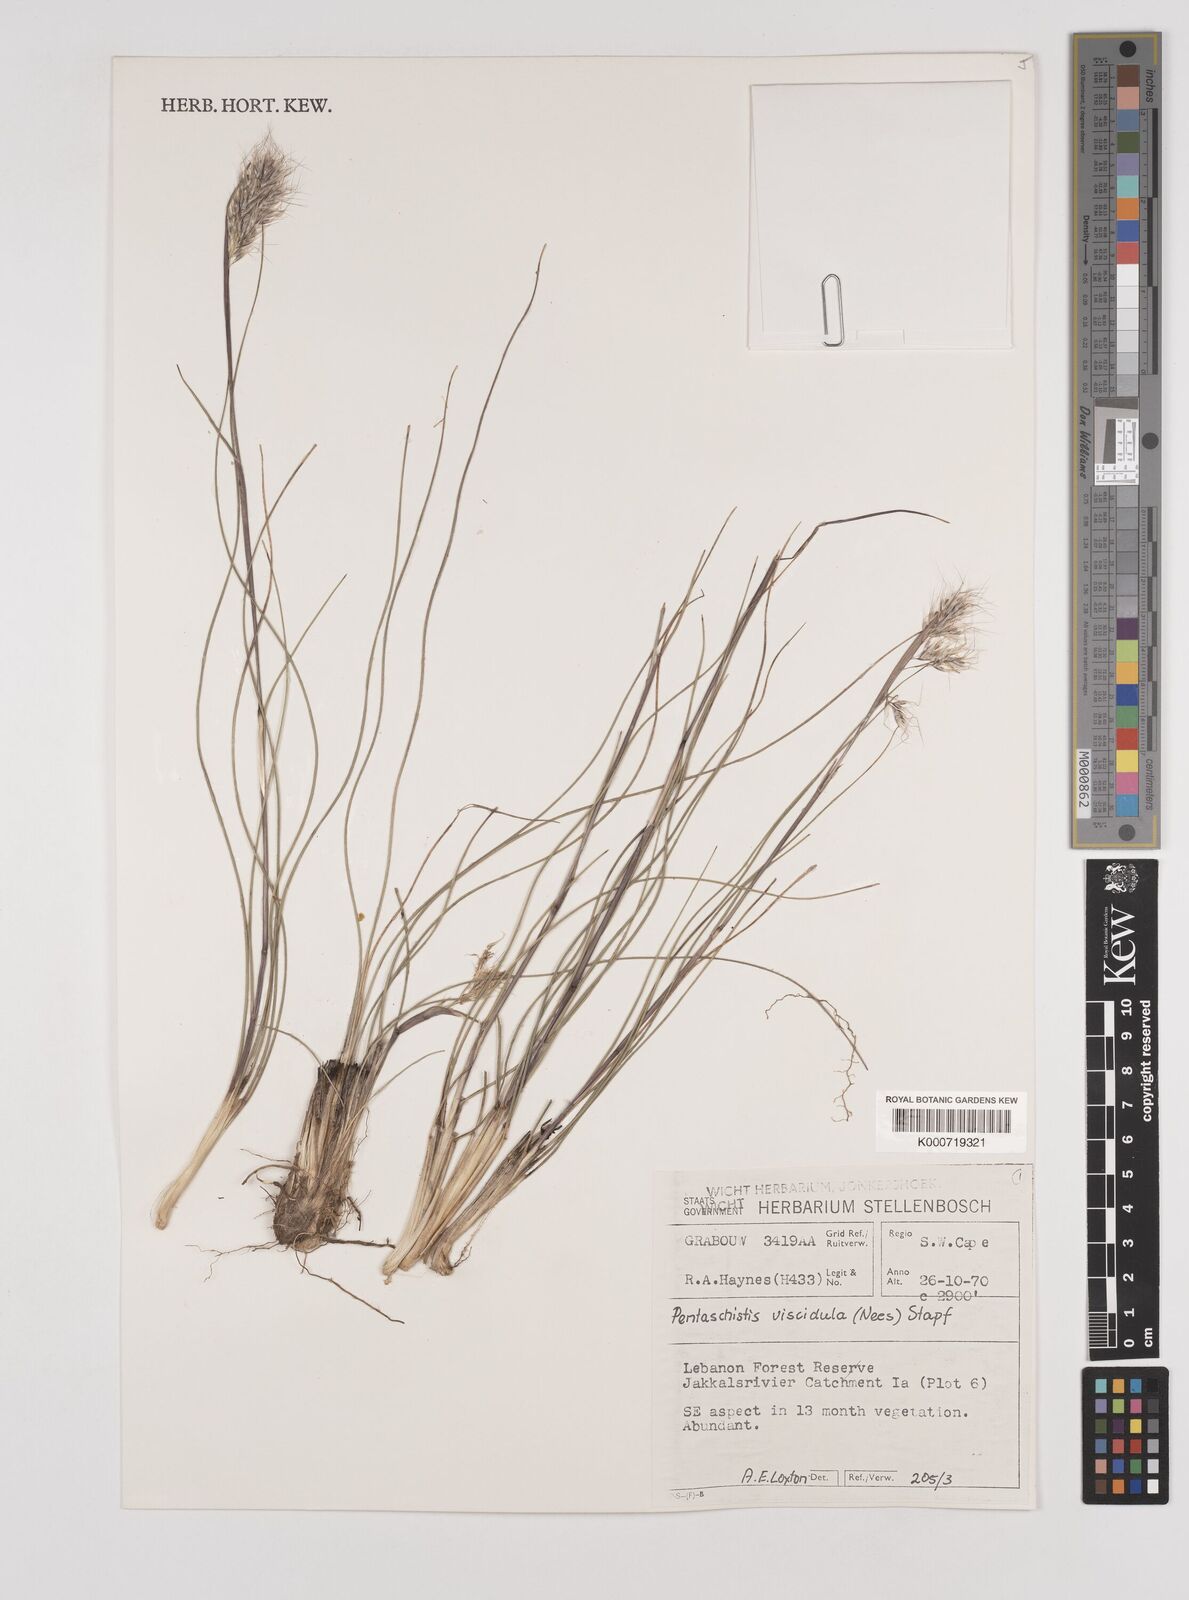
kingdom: Plantae
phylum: Tracheophyta
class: Liliopsida
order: Poales
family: Poaceae
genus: Pentameris
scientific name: Pentameris viscidula
